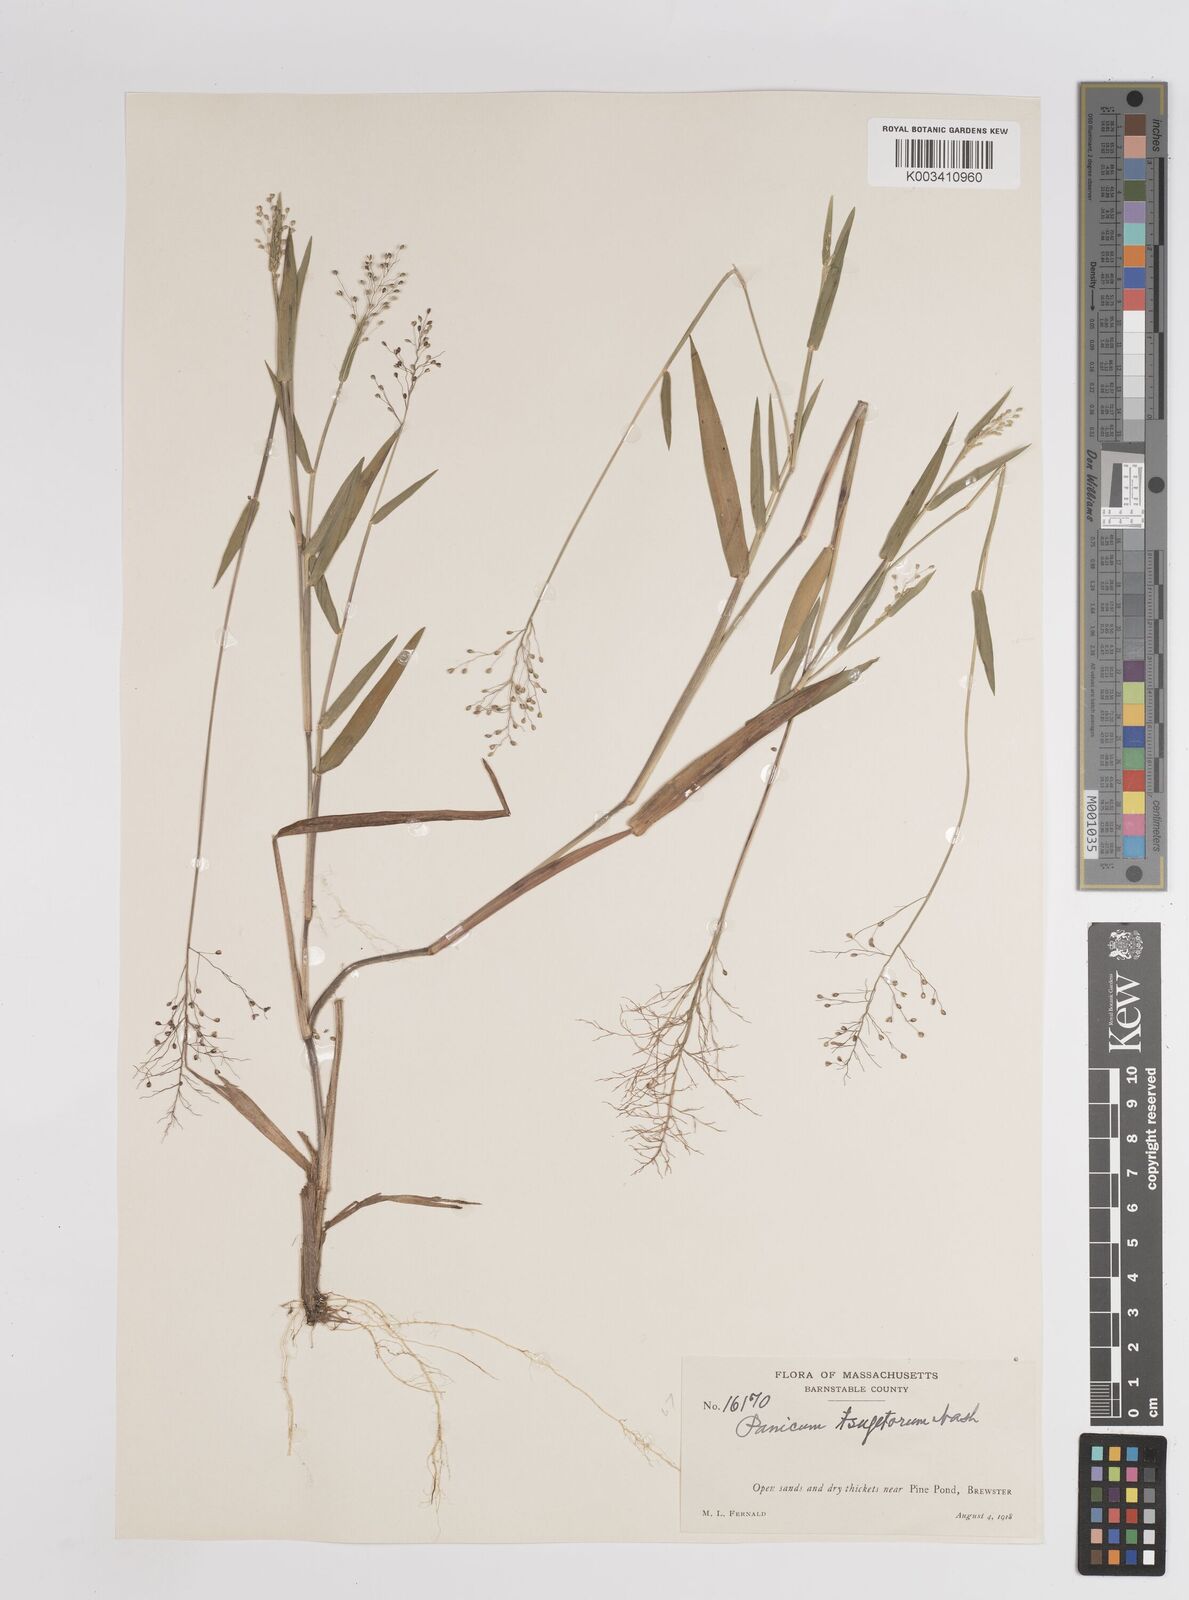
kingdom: Plantae
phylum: Tracheophyta
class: Liliopsida
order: Poales
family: Poaceae
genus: Dichanthelium
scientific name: Dichanthelium columbianum
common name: Hemlock panic grass
